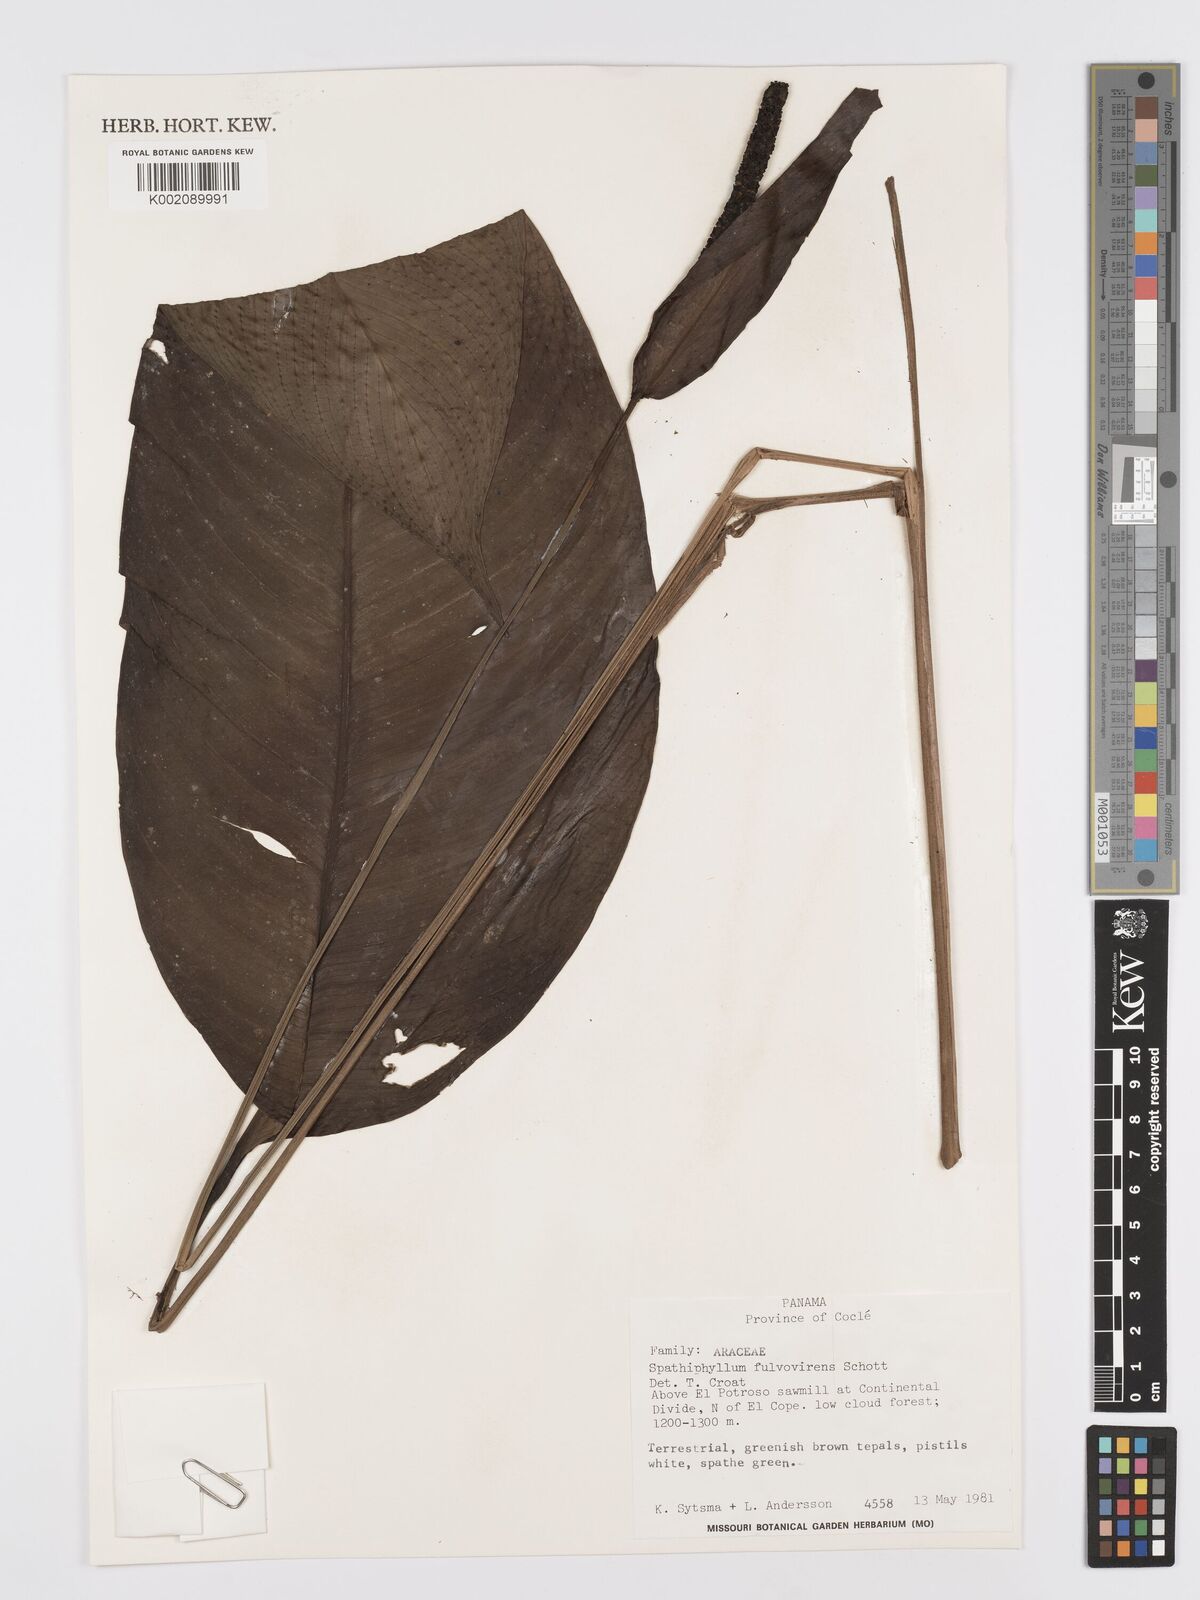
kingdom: Plantae
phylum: Tracheophyta
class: Liliopsida
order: Alismatales
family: Araceae
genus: Spathiphyllum
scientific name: Spathiphyllum fulvovirens
